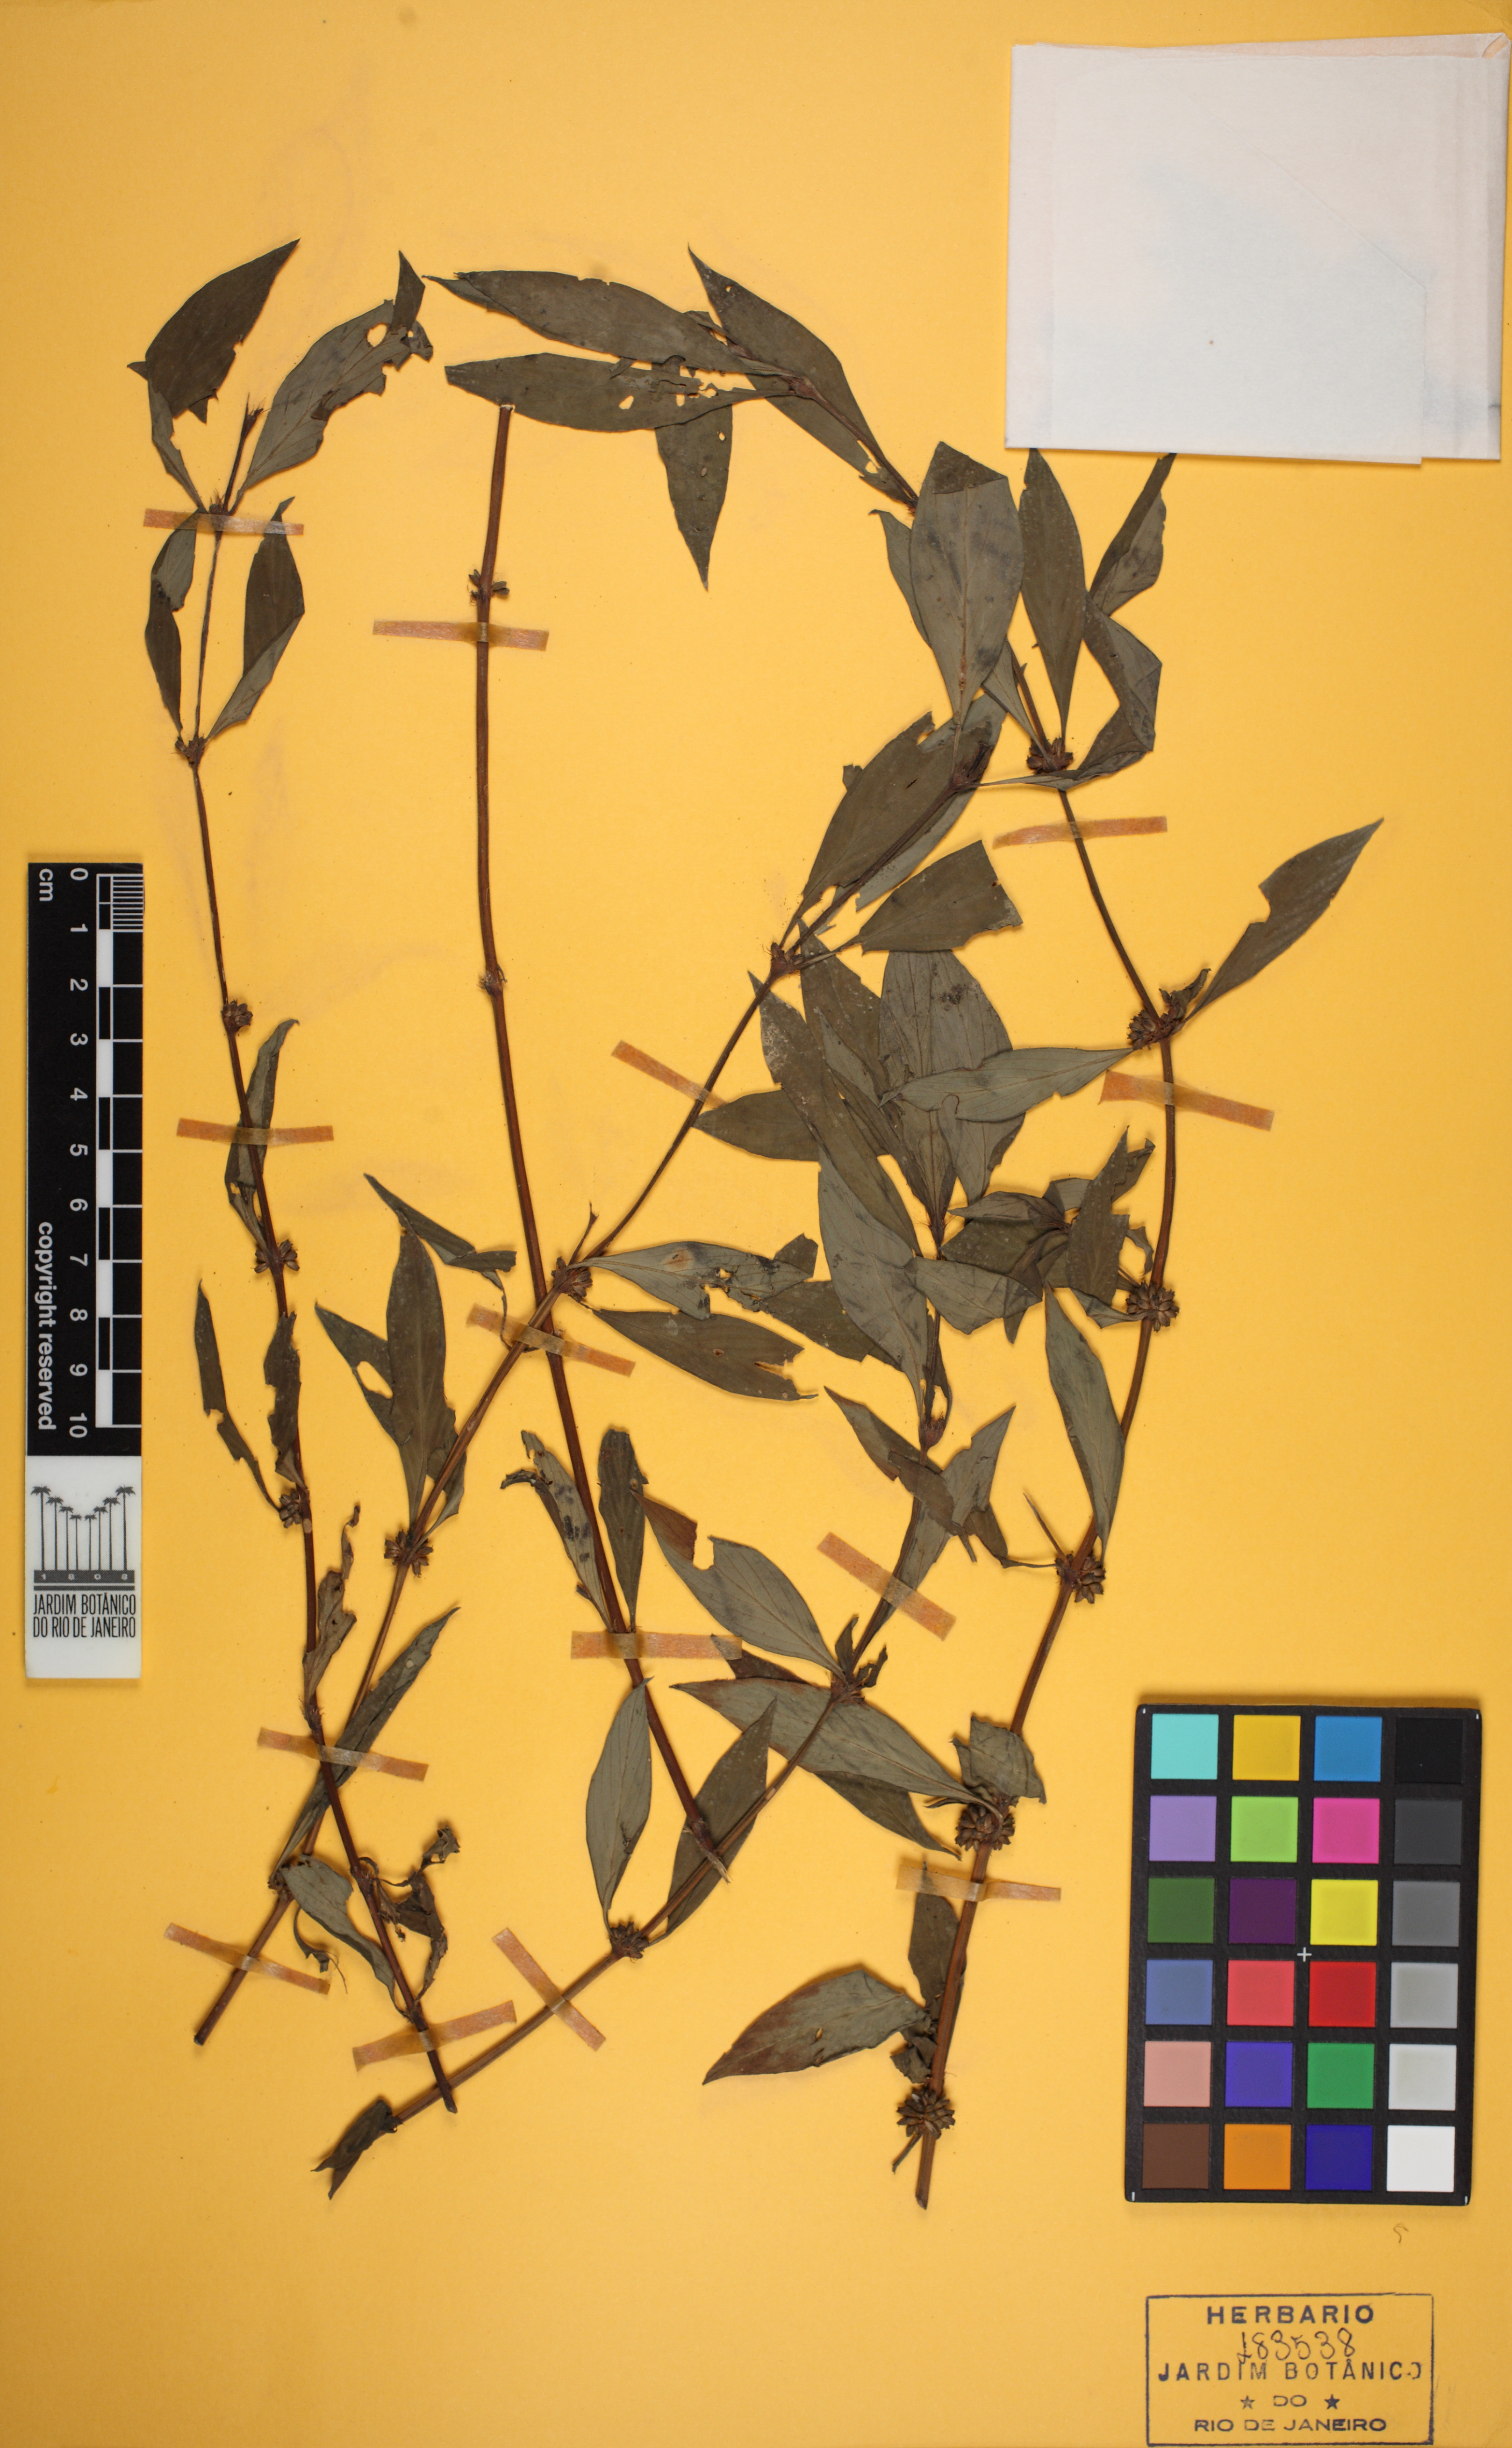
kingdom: Plantae
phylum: Tracheophyta
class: Magnoliopsida
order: Gentianales
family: Rubiaceae
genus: Spermacoce
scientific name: Spermacoce ocymifolia
